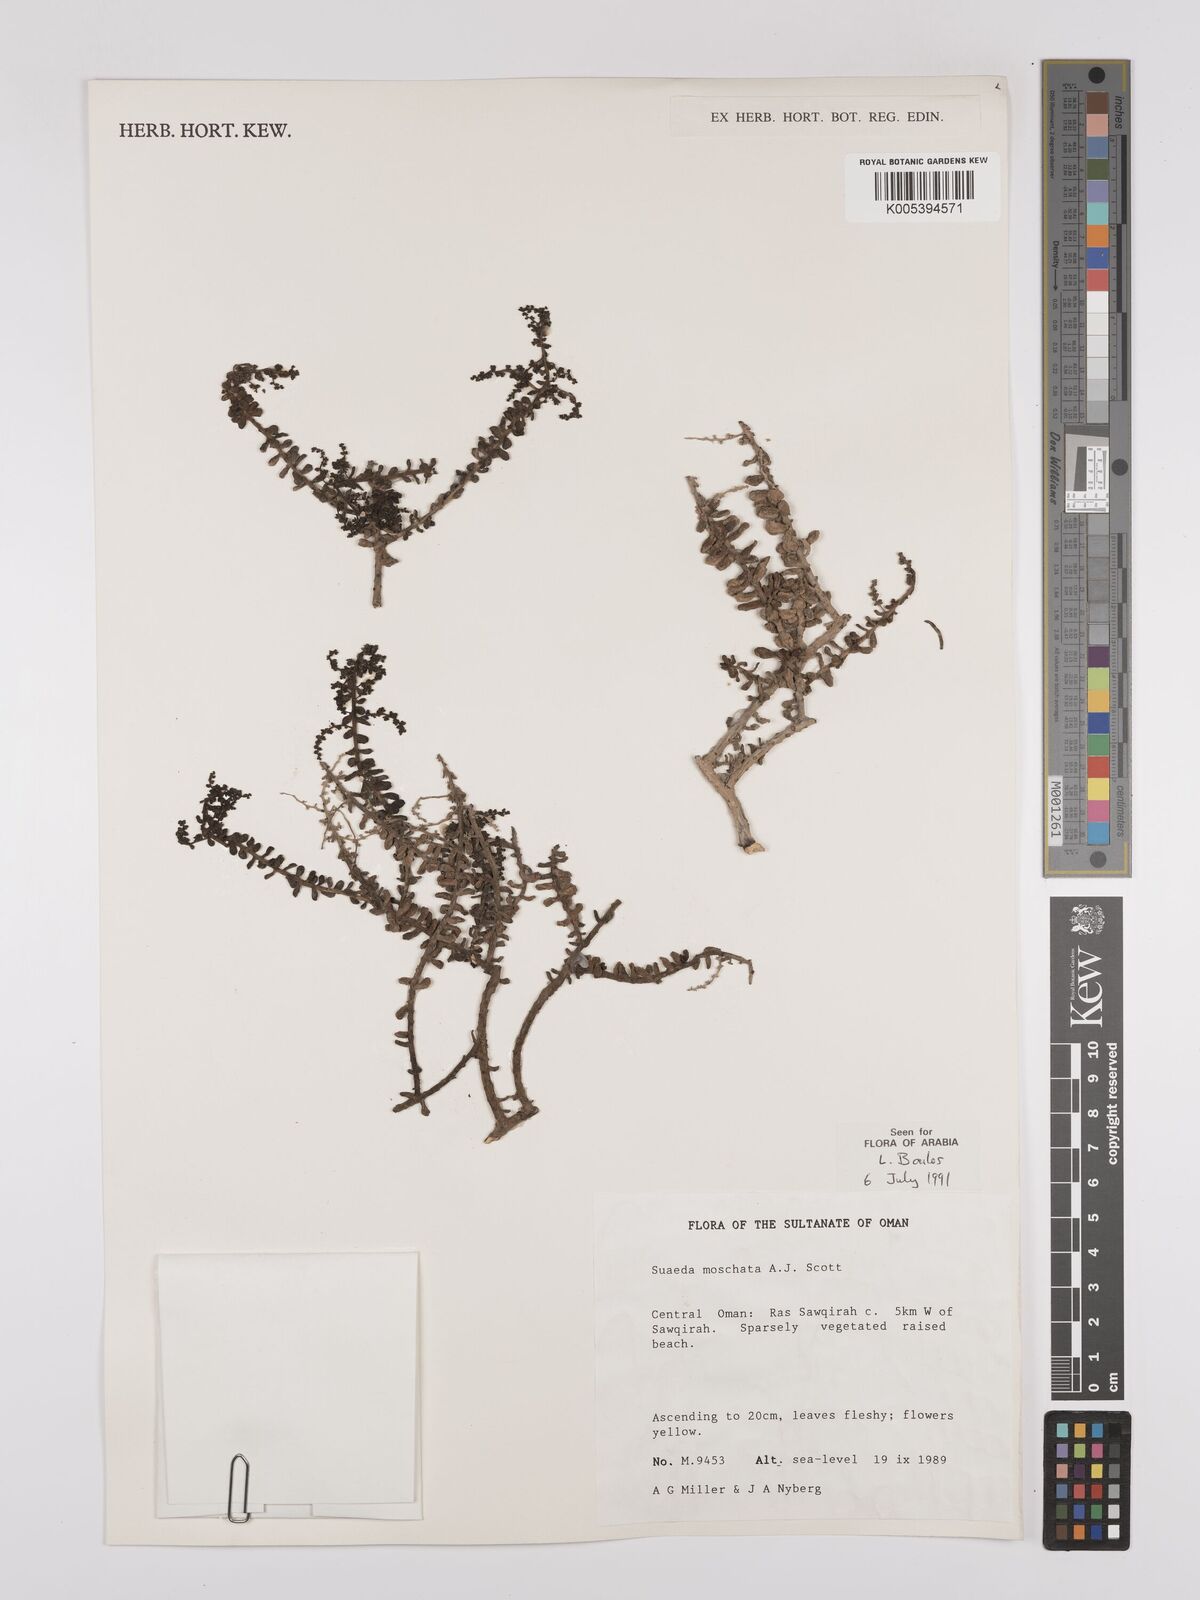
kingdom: Plantae
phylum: Tracheophyta
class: Magnoliopsida
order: Caryophyllales
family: Amaranthaceae
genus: Suaeda
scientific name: Suaeda
